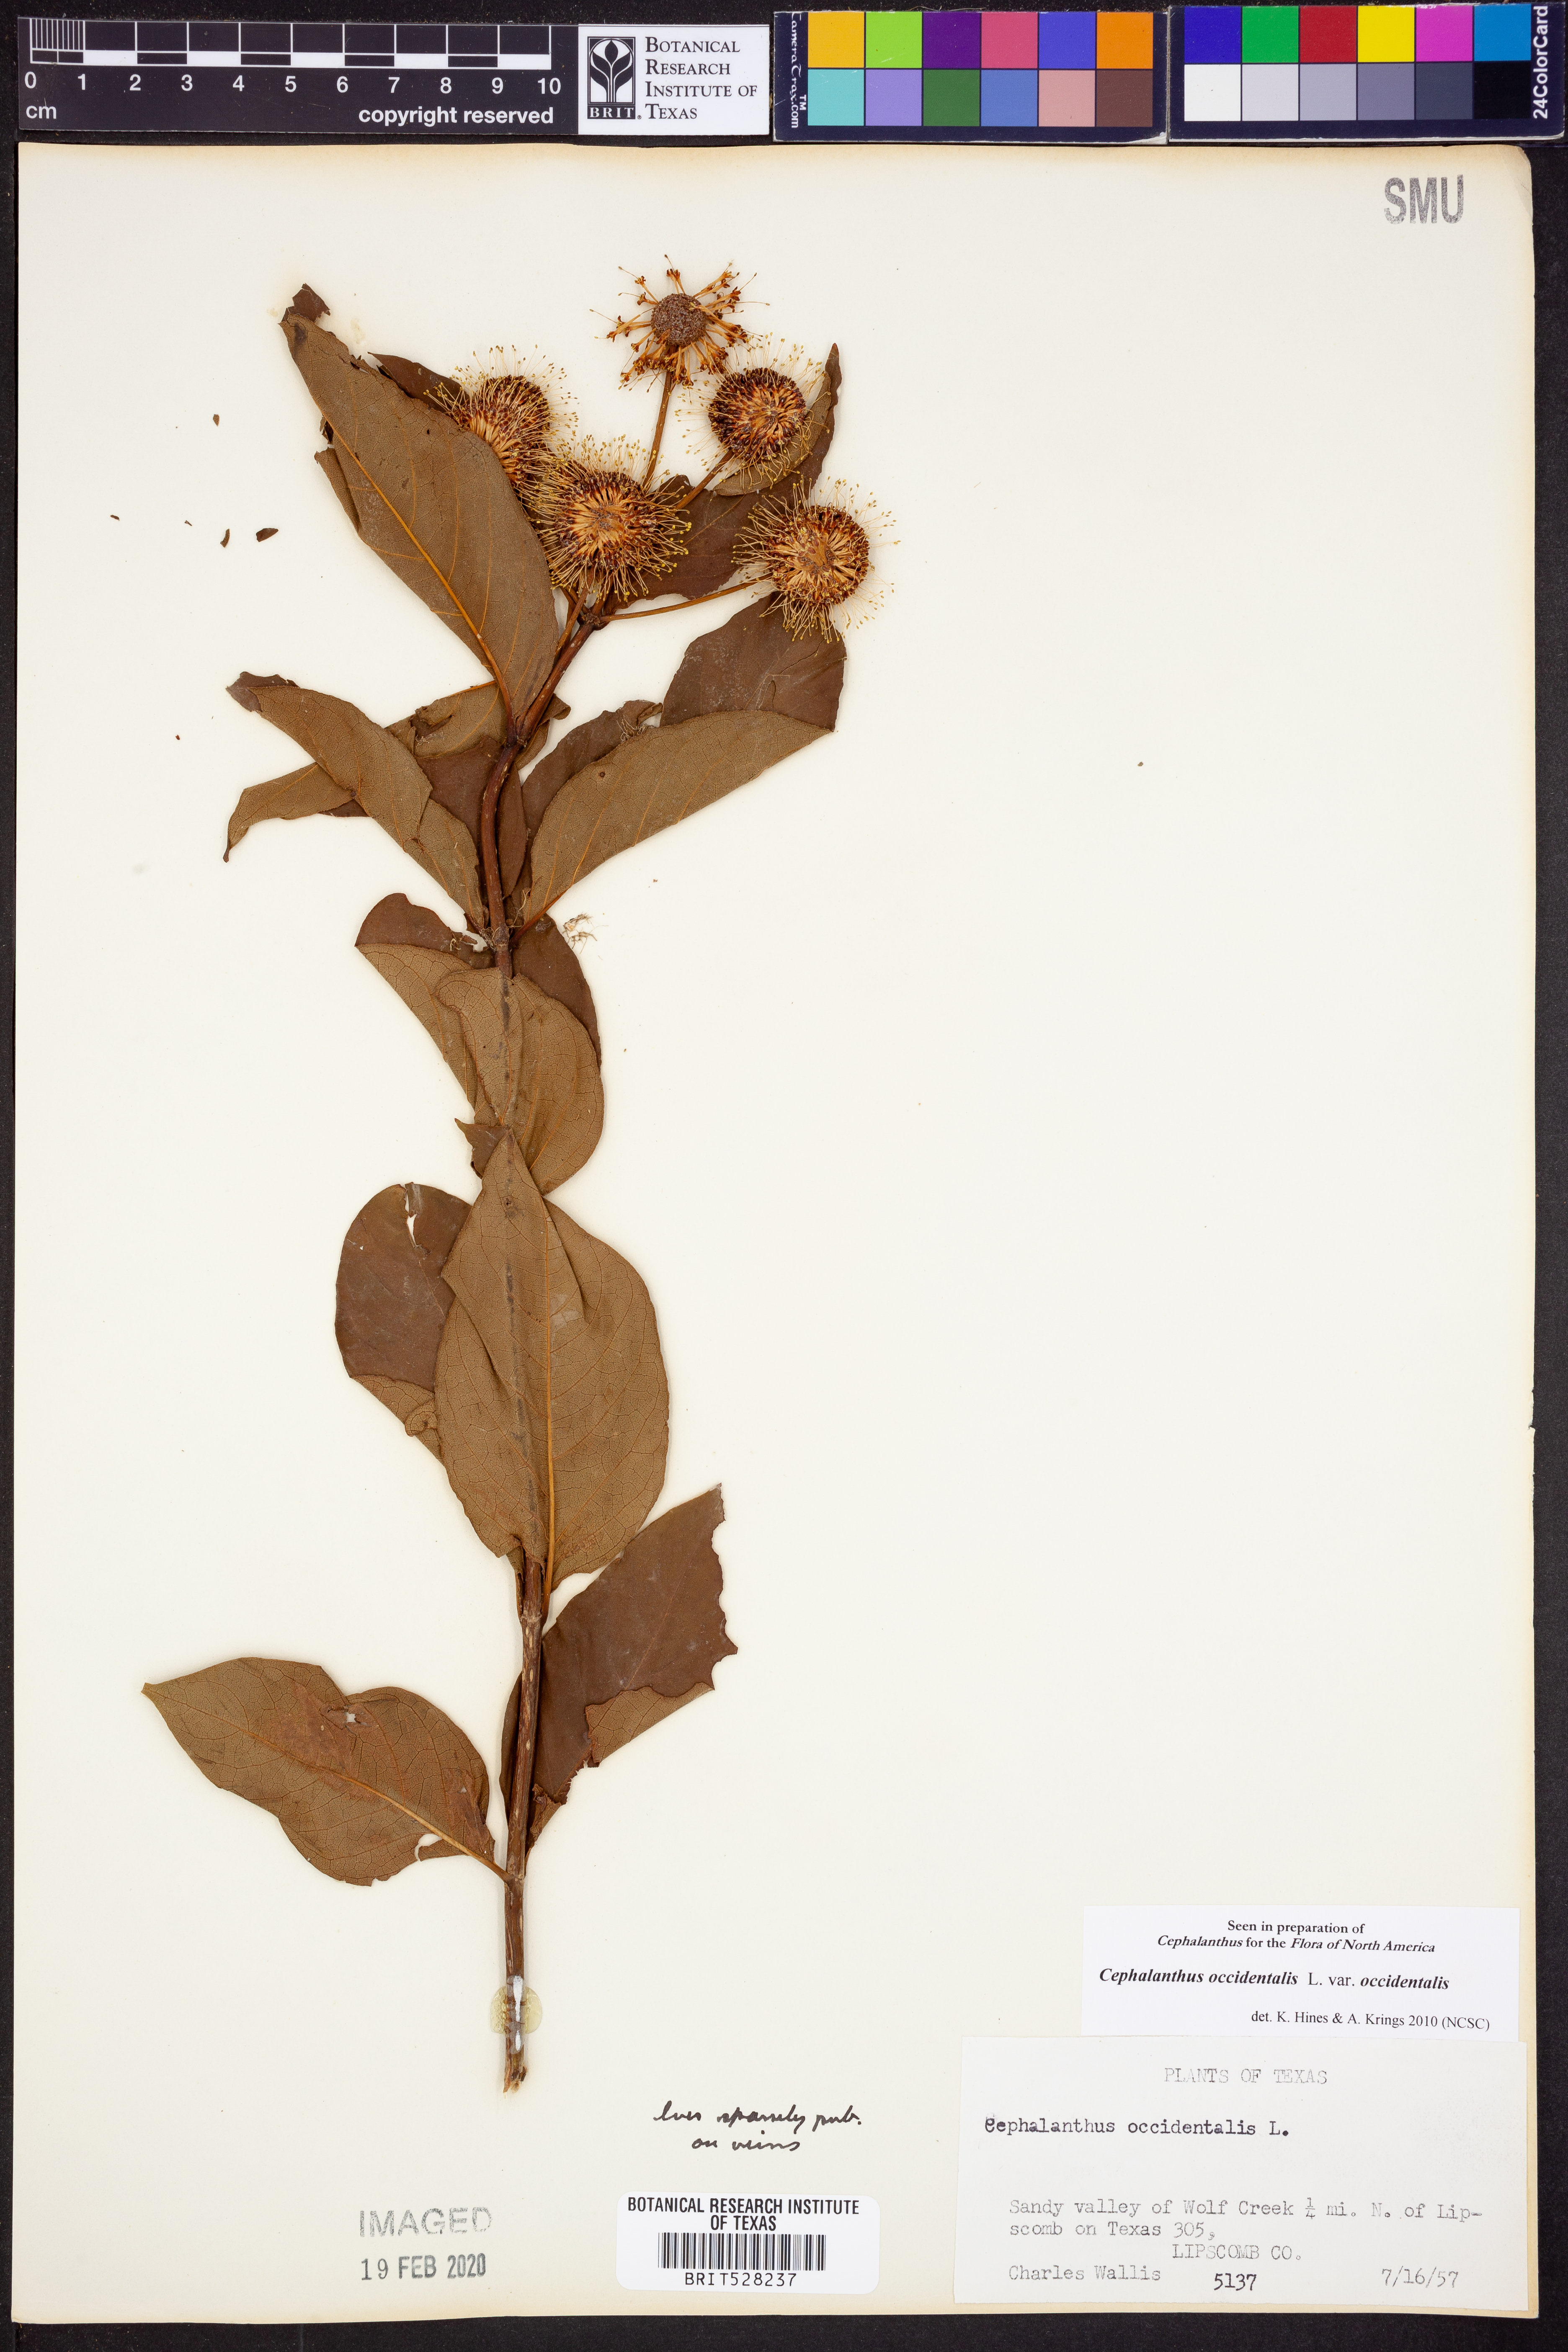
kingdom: Plantae
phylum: Tracheophyta
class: Magnoliopsida
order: Gentianales
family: Rubiaceae
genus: Cephalanthus
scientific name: Cephalanthus occidentalis
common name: Button-willow
